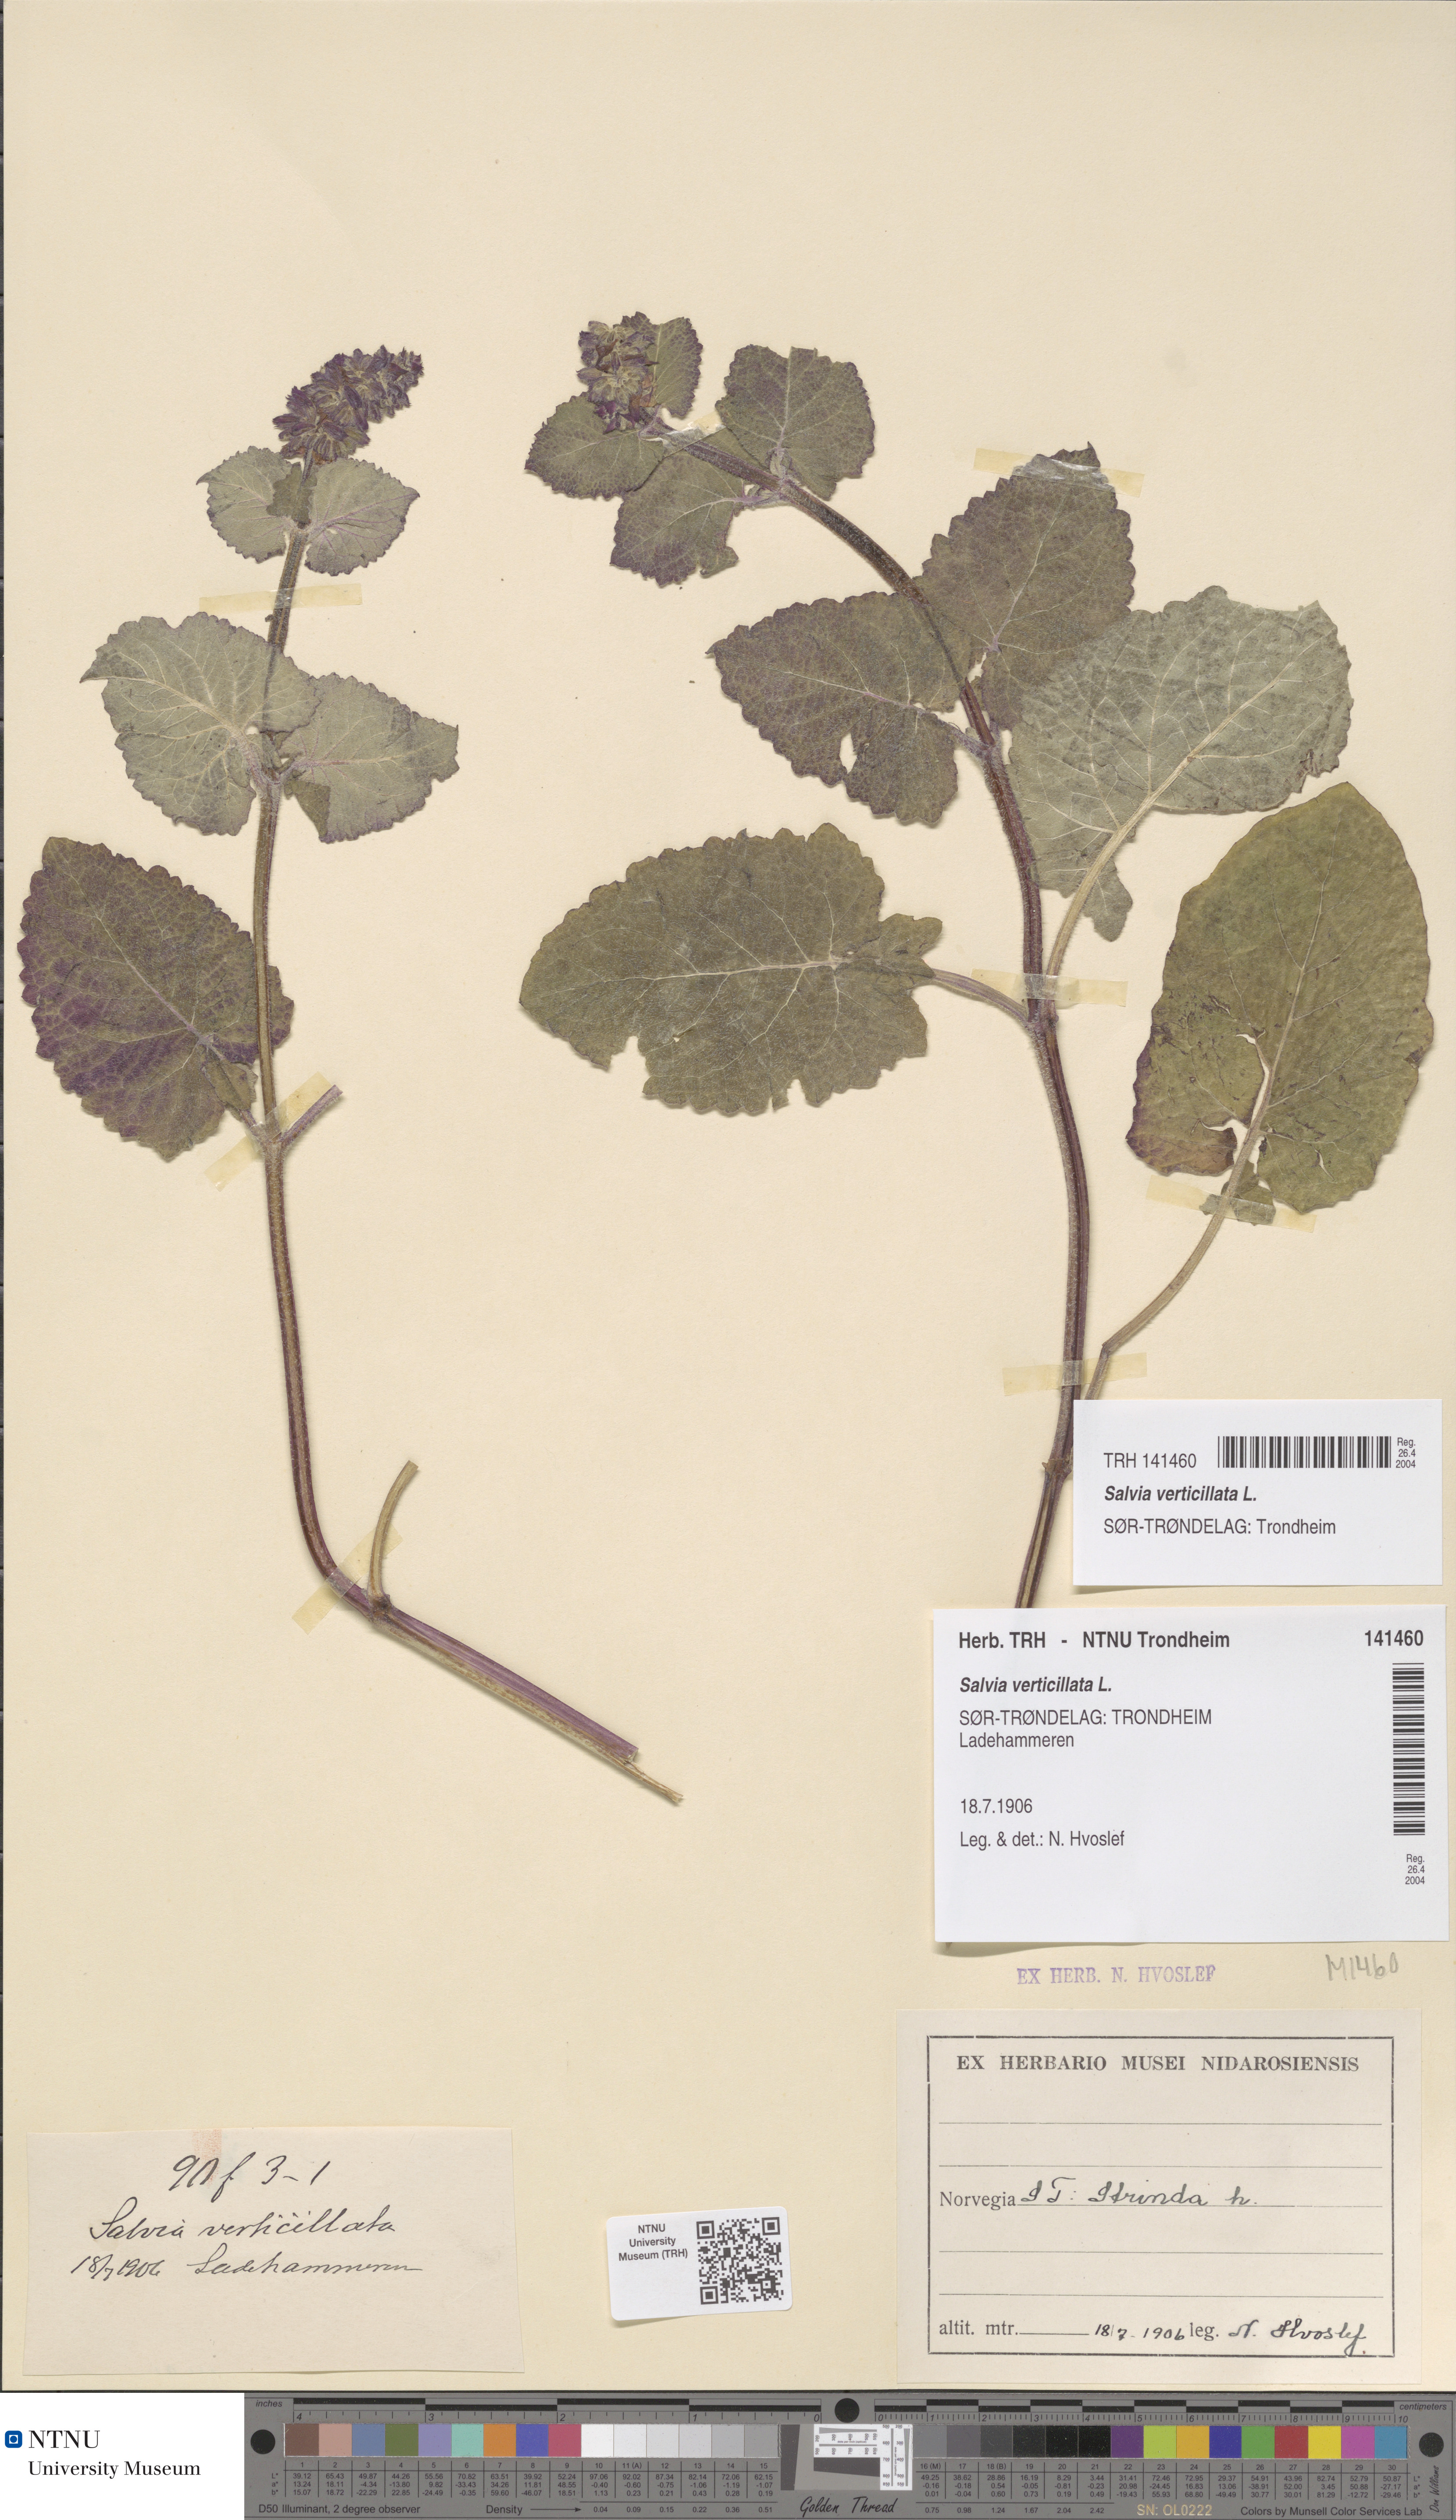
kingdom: Plantae
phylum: Tracheophyta
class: Magnoliopsida
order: Lamiales
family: Lamiaceae
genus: Salvia
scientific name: Salvia verticillata
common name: Whorled clary
